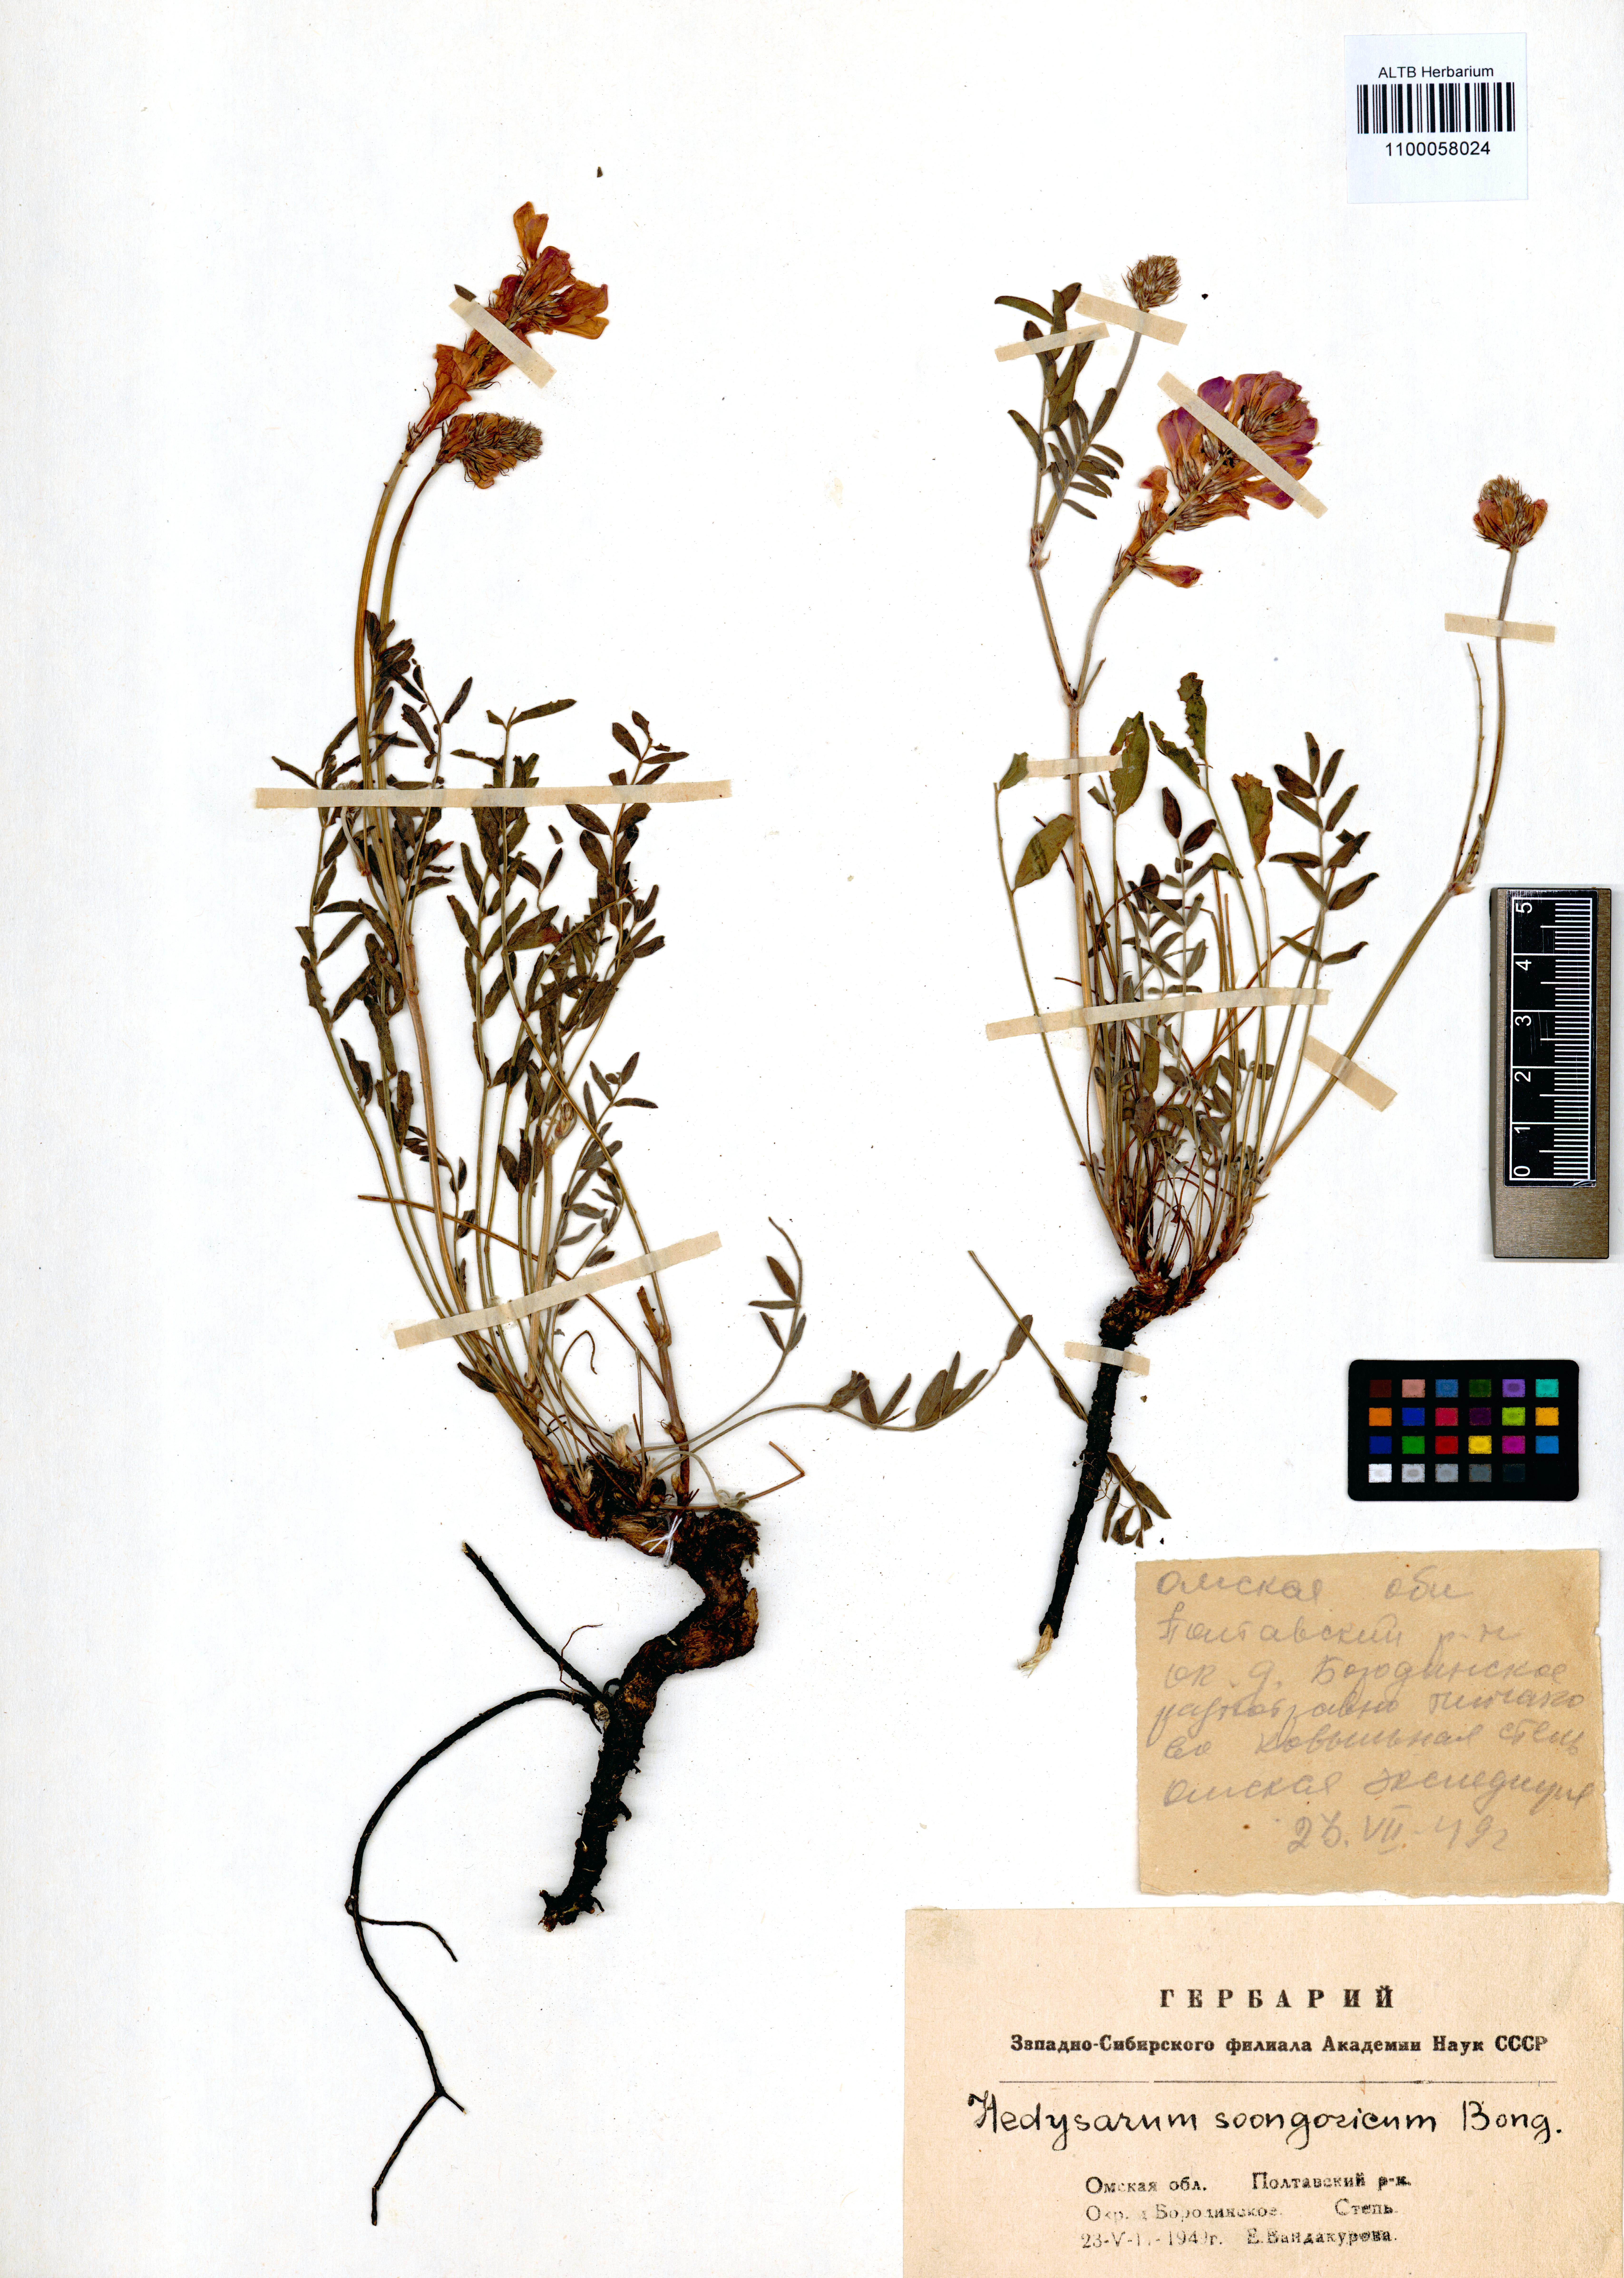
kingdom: Plantae
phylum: Tracheophyta
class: Magnoliopsida
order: Fabales
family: Fabaceae
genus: Hedysarum
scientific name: Hedysarum songaricum
